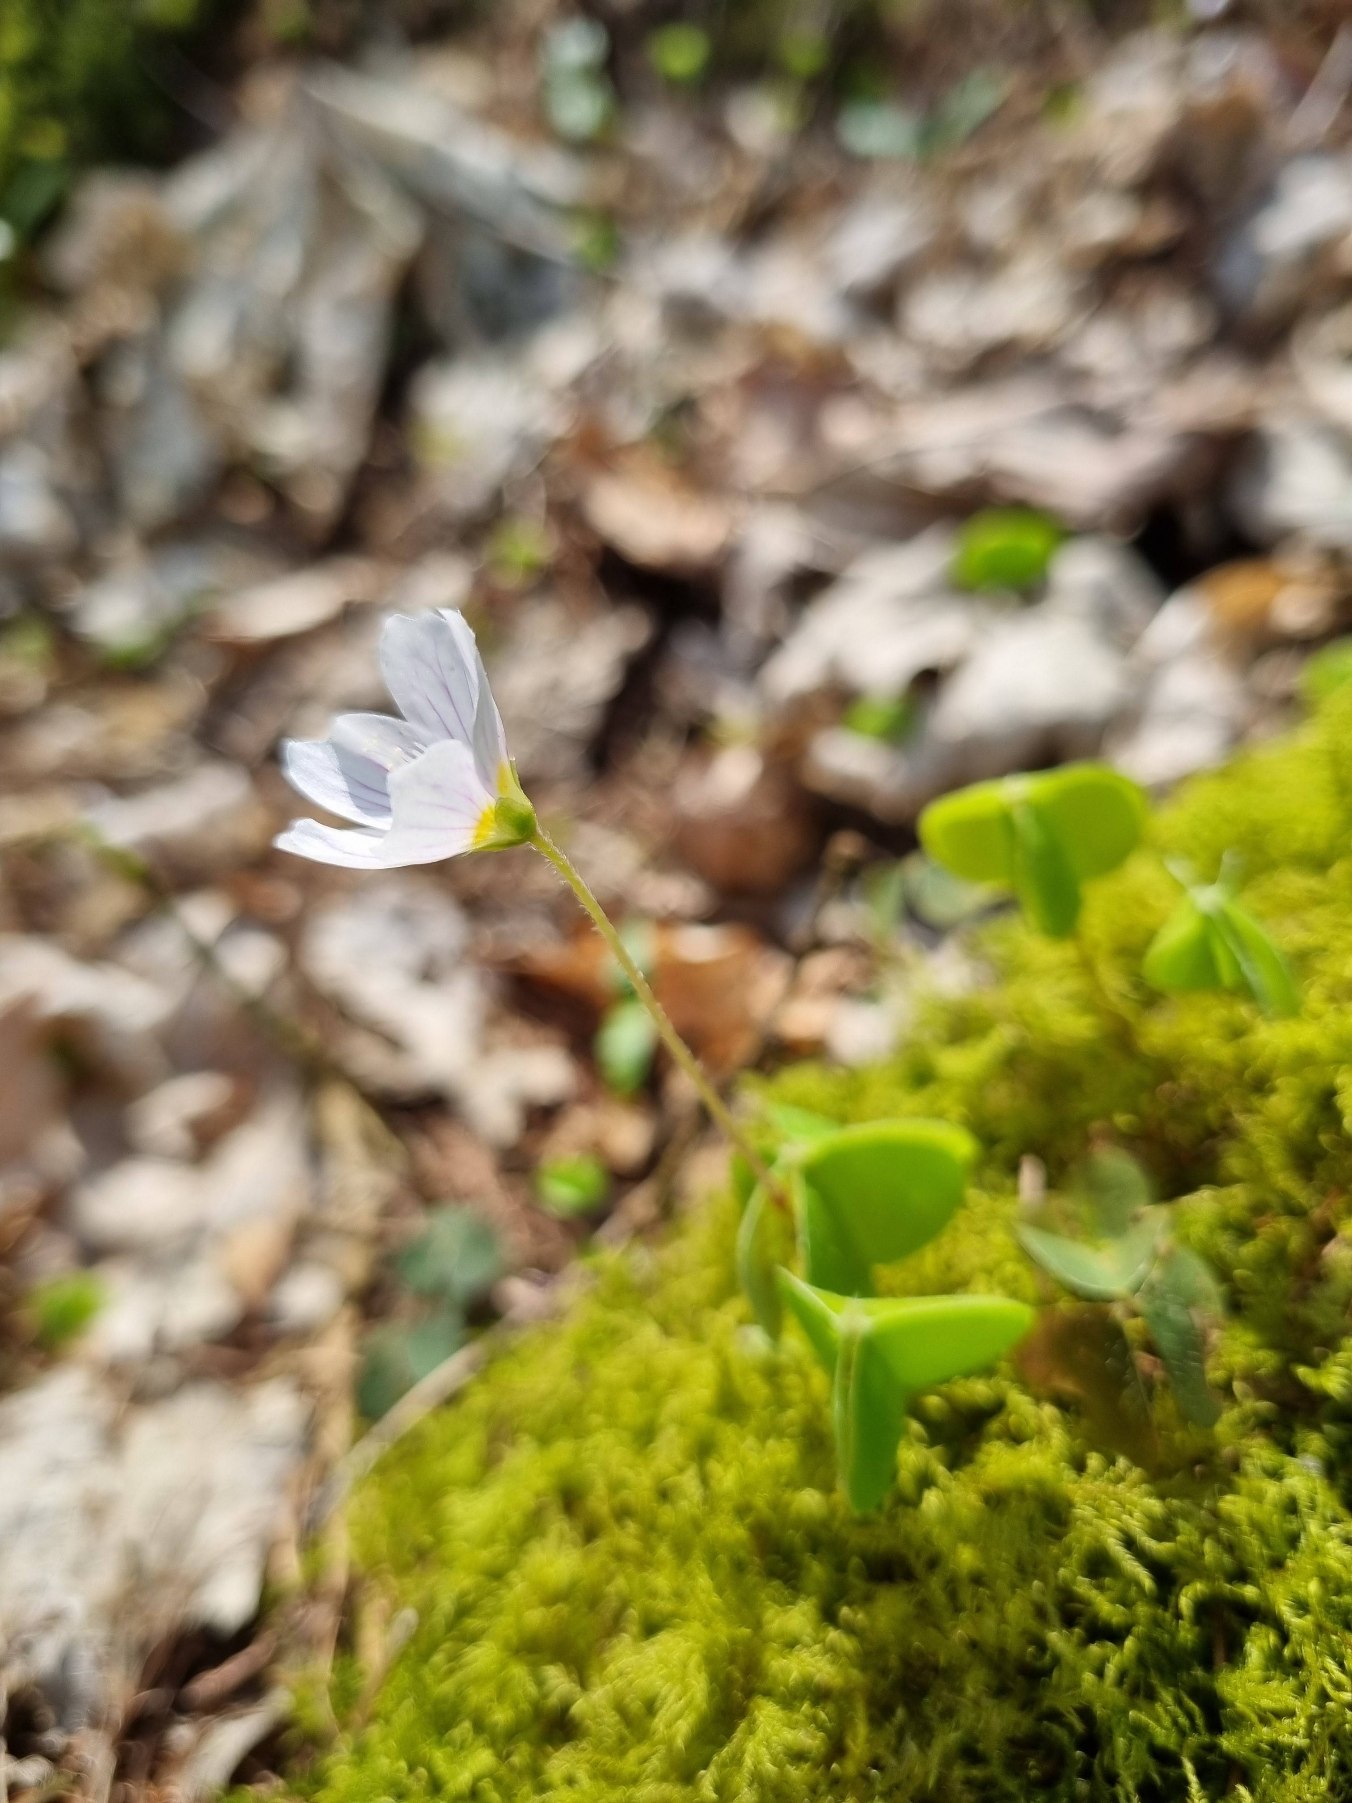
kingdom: Plantae
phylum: Tracheophyta
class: Magnoliopsida
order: Oxalidales
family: Oxalidaceae
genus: Oxalis
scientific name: Oxalis acetosella
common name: Skovsyre
